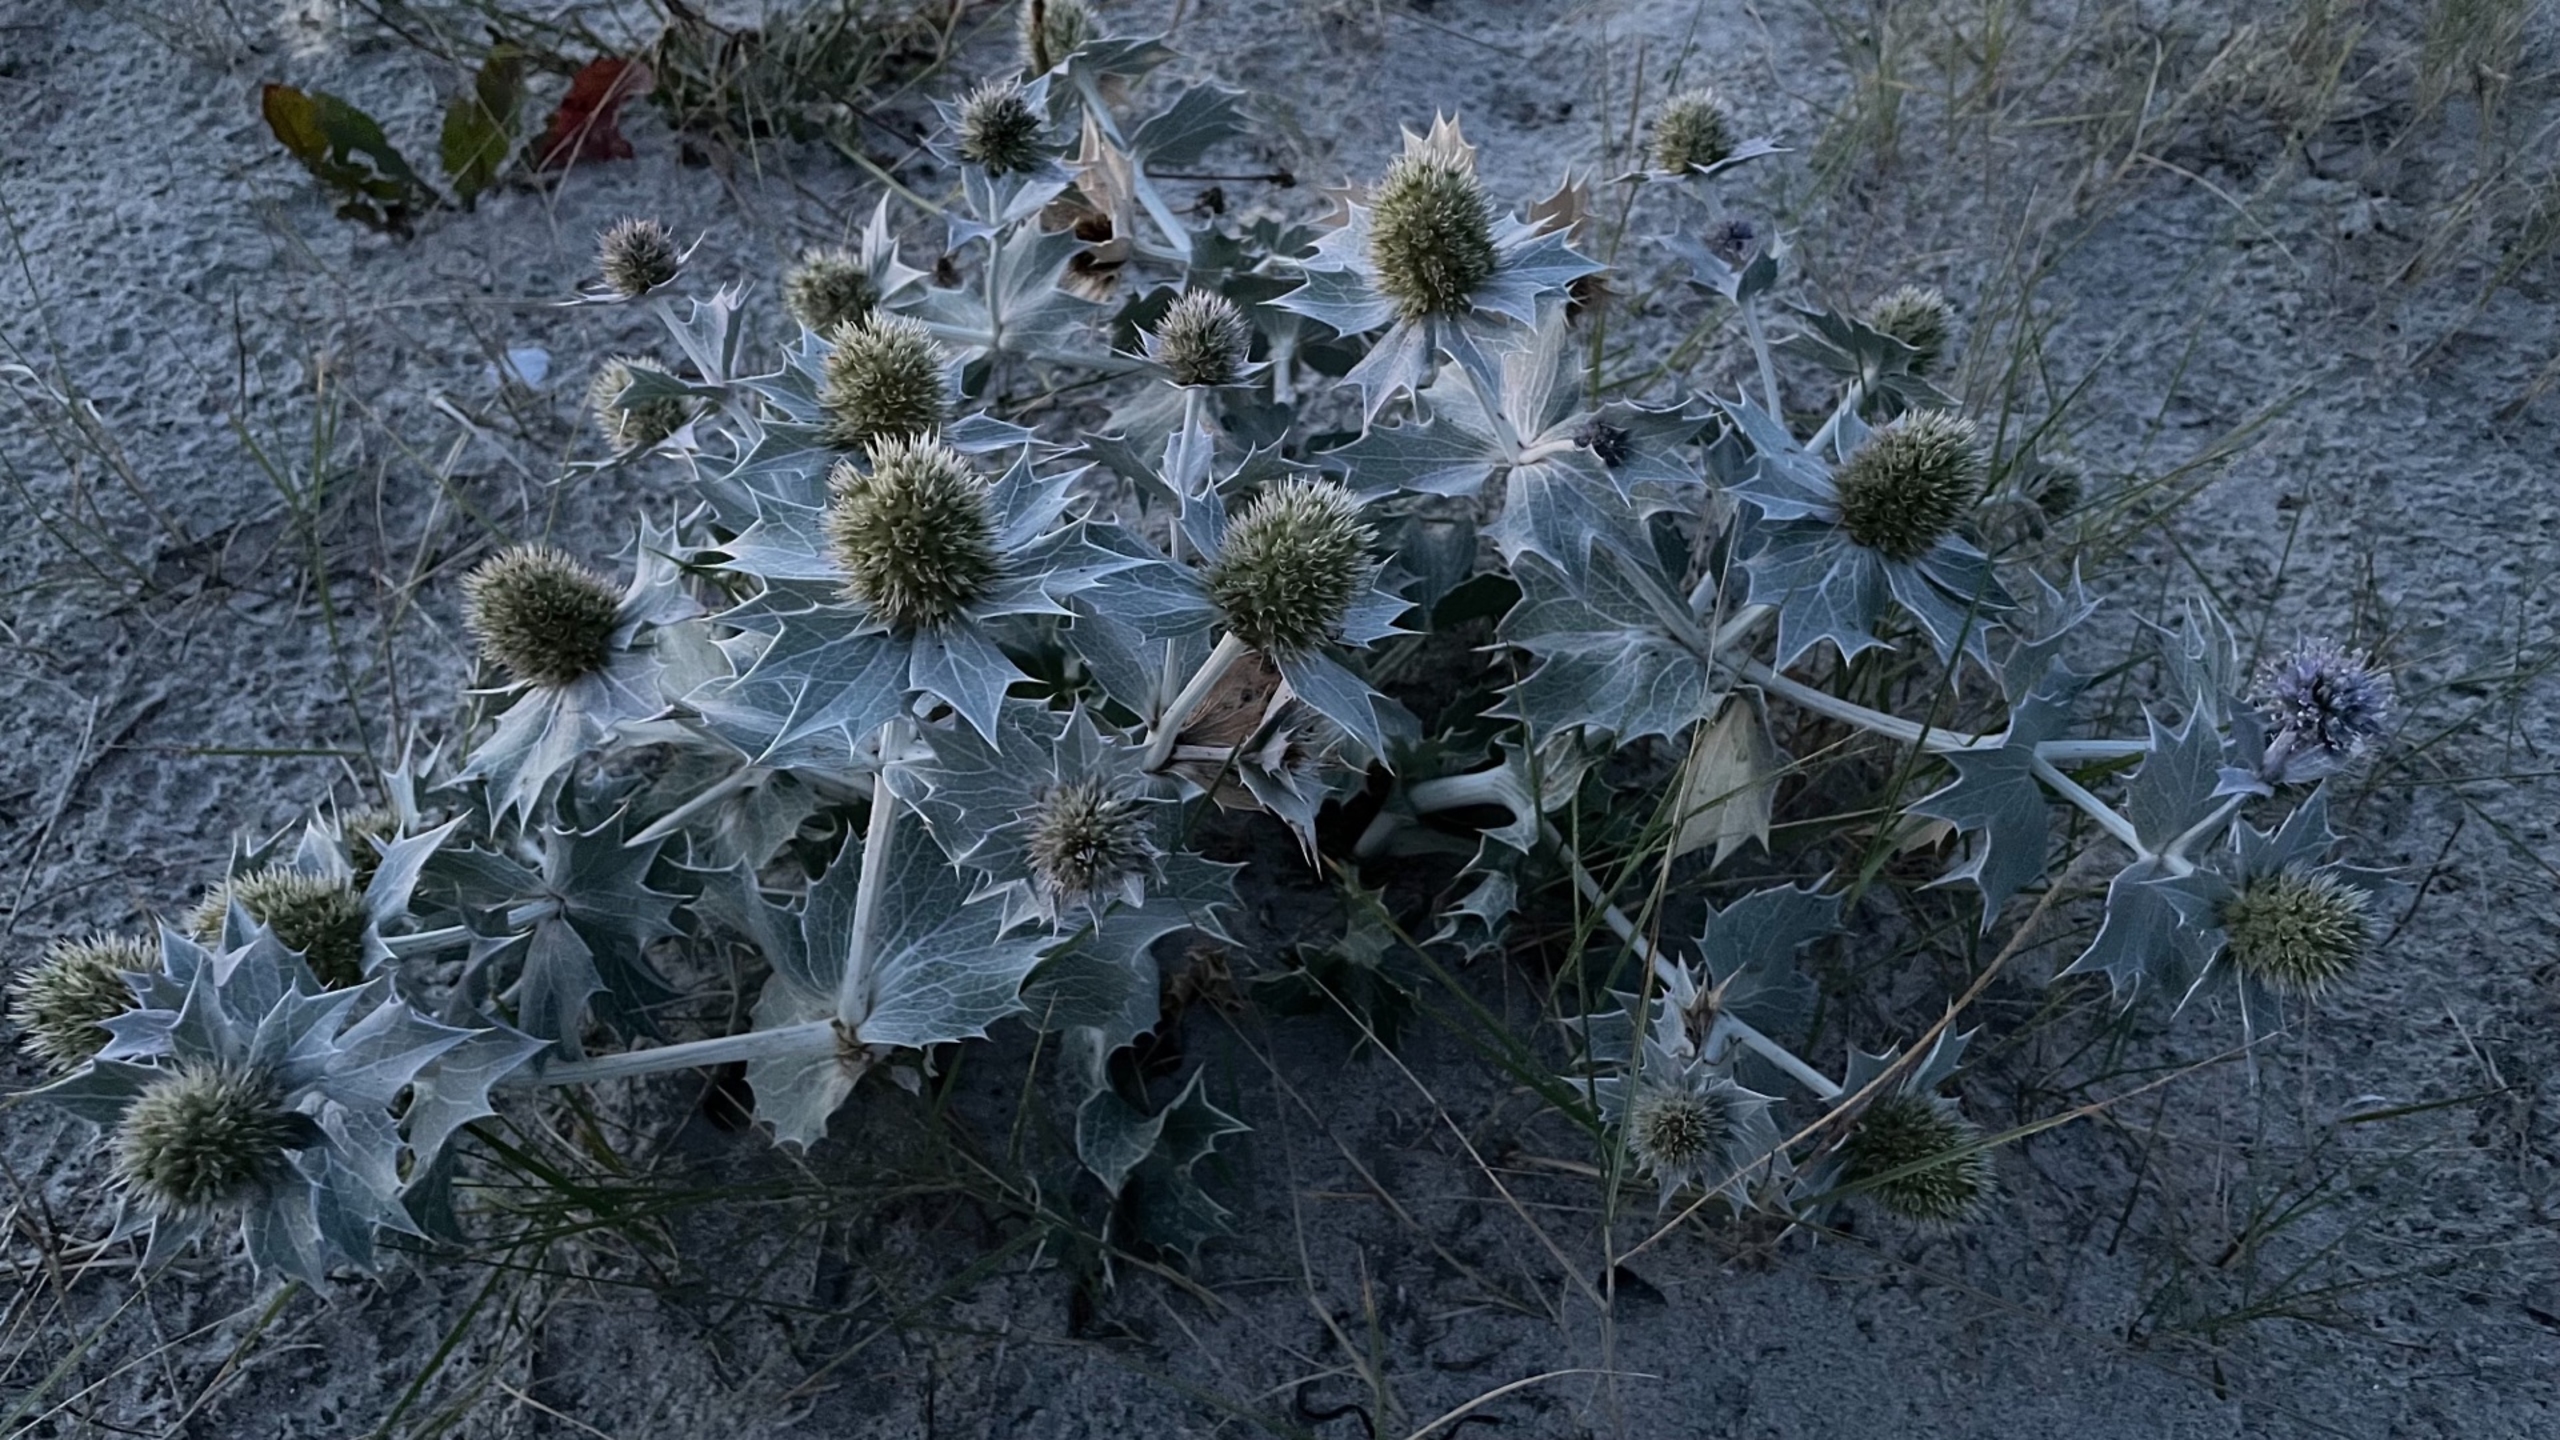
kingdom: Plantae
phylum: Tracheophyta
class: Magnoliopsida
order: Apiales
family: Apiaceae
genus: Eryngium
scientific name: Eryngium maritimum
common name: Strand-mandstro
